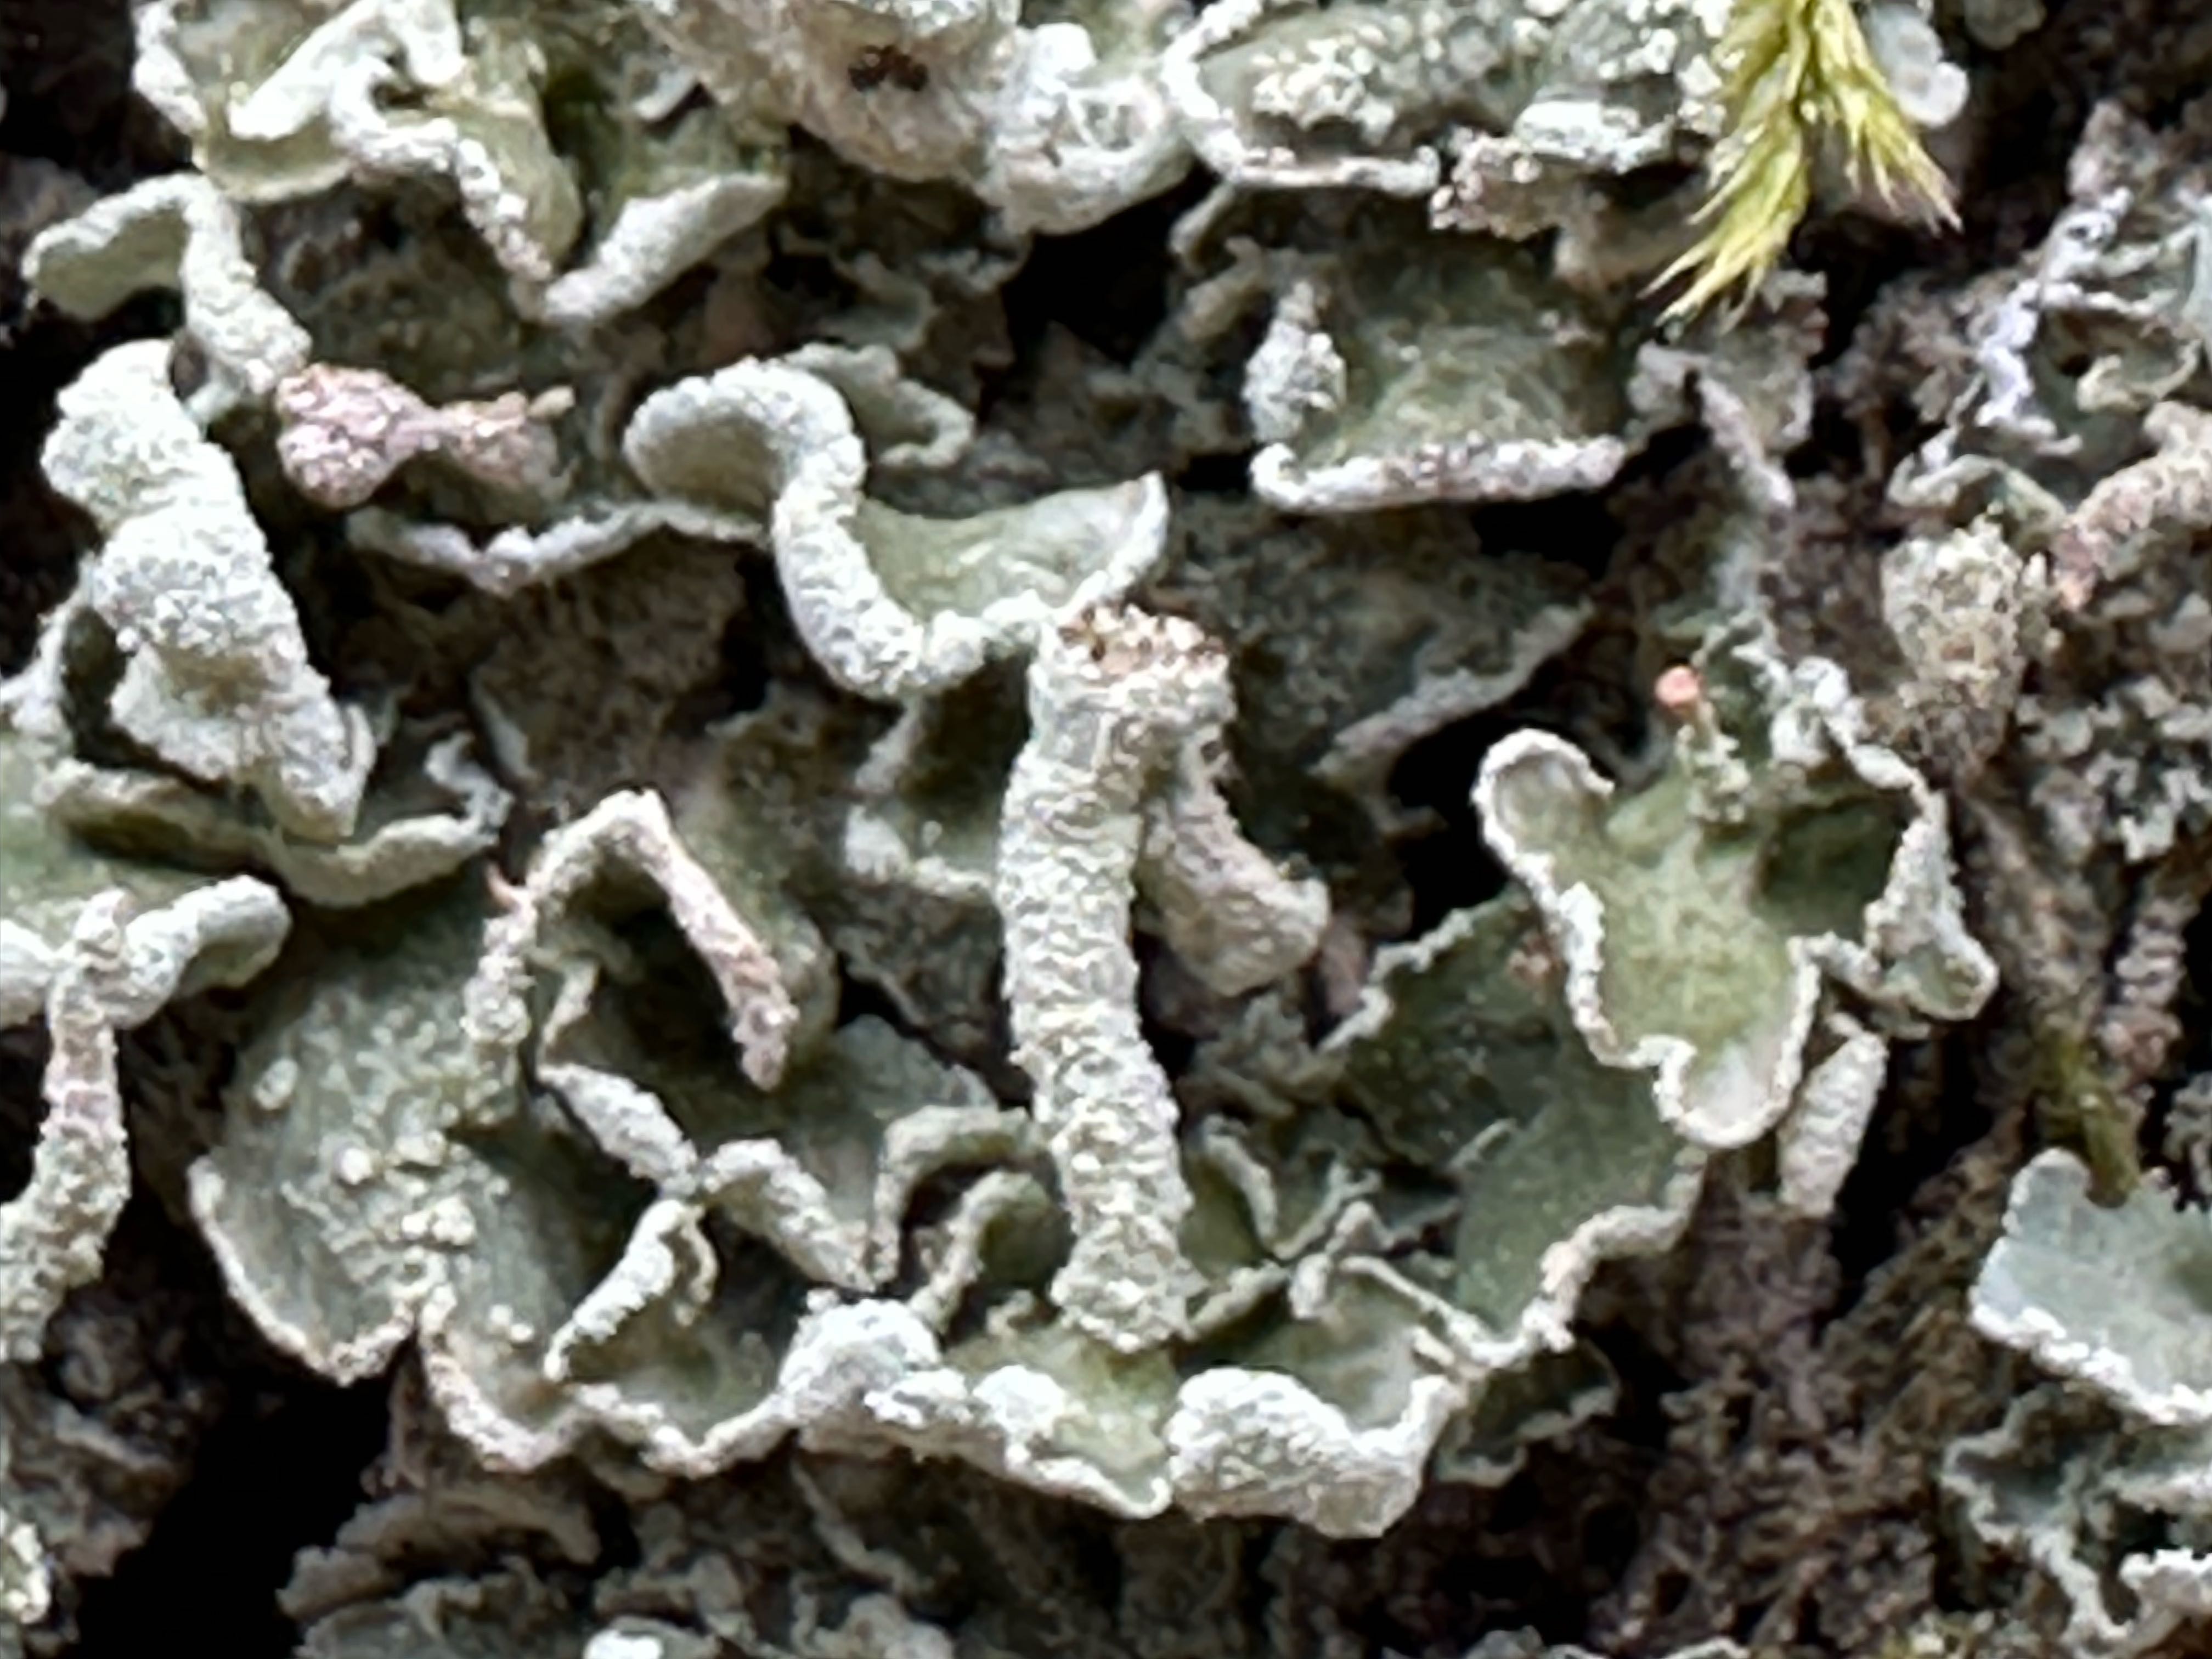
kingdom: Fungi
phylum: Ascomycota
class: Lecanoromycetes
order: Lecanorales
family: Cladoniaceae
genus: Cladonia
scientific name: Cladonia digitata
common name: finger-bægerlav
